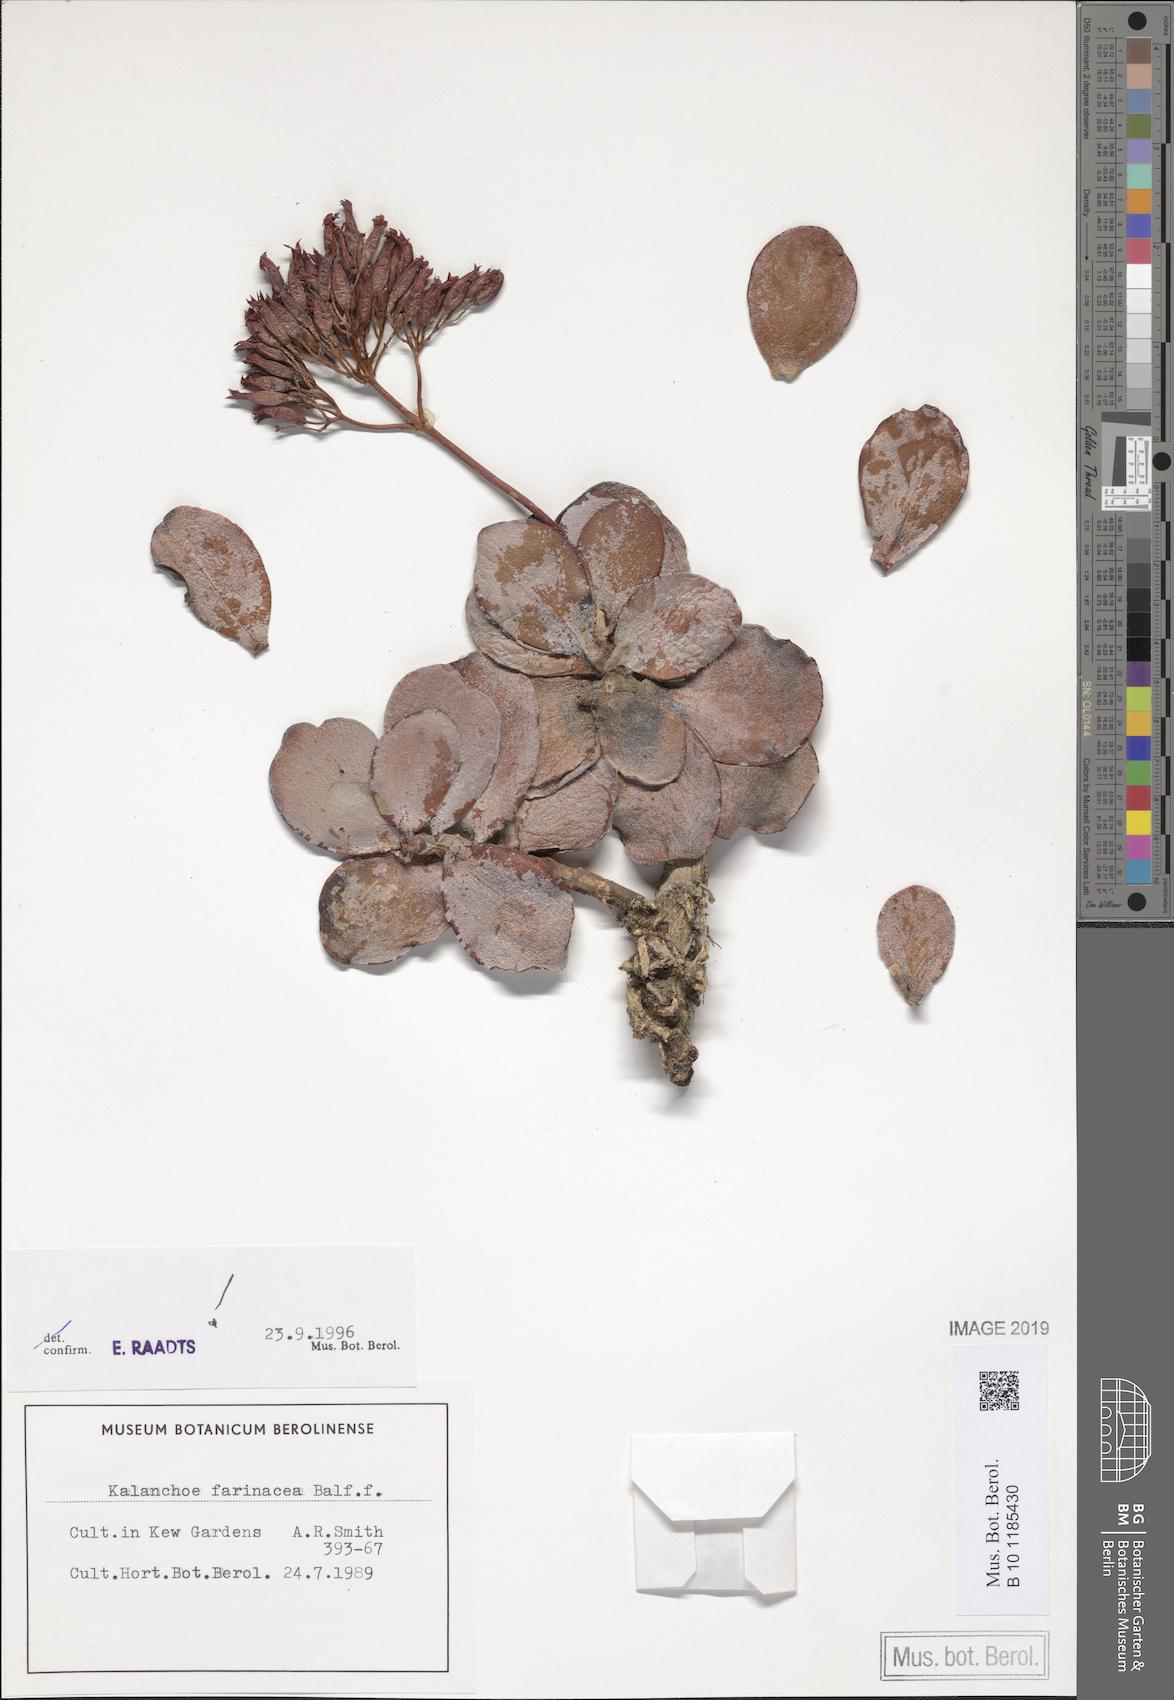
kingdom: Plantae
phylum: Tracheophyta
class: Magnoliopsida
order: Saxifragales
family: Crassulaceae
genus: Kalanchoe
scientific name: Kalanchoe farinacea
